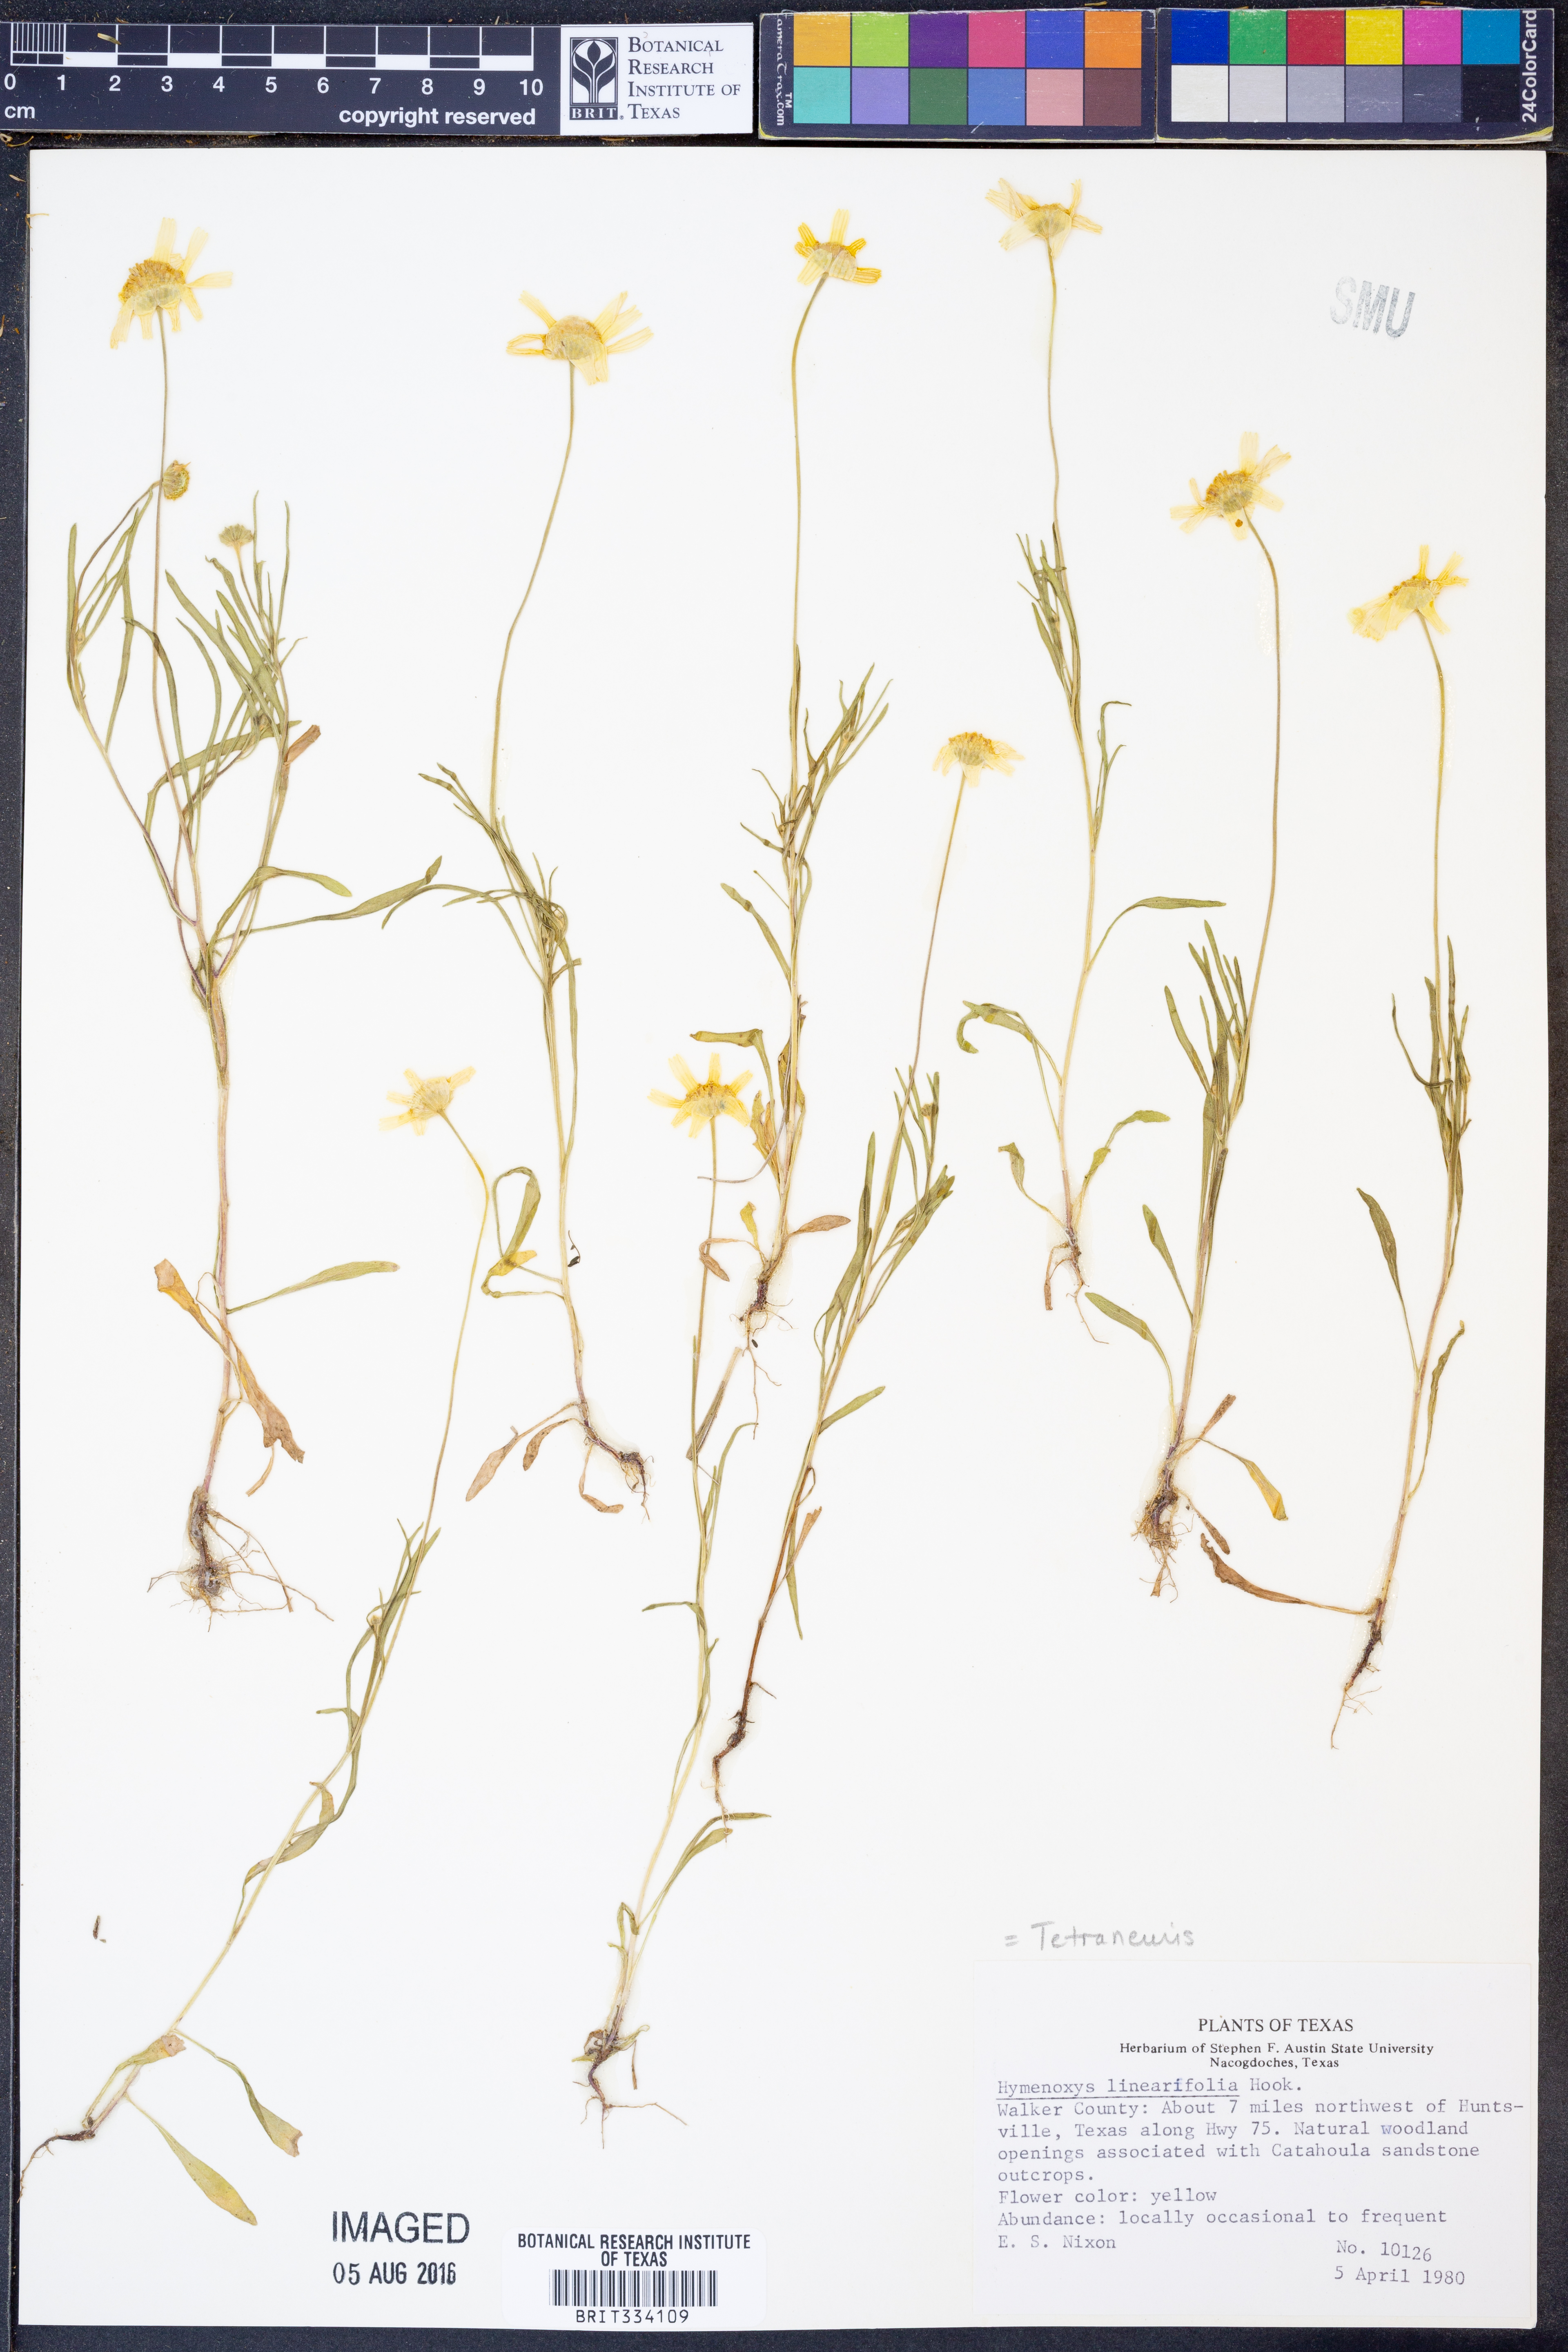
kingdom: Plantae
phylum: Tracheophyta
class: Magnoliopsida
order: Asterales
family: Asteraceae
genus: Tetraneuris
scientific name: Tetraneuris linearifolia
